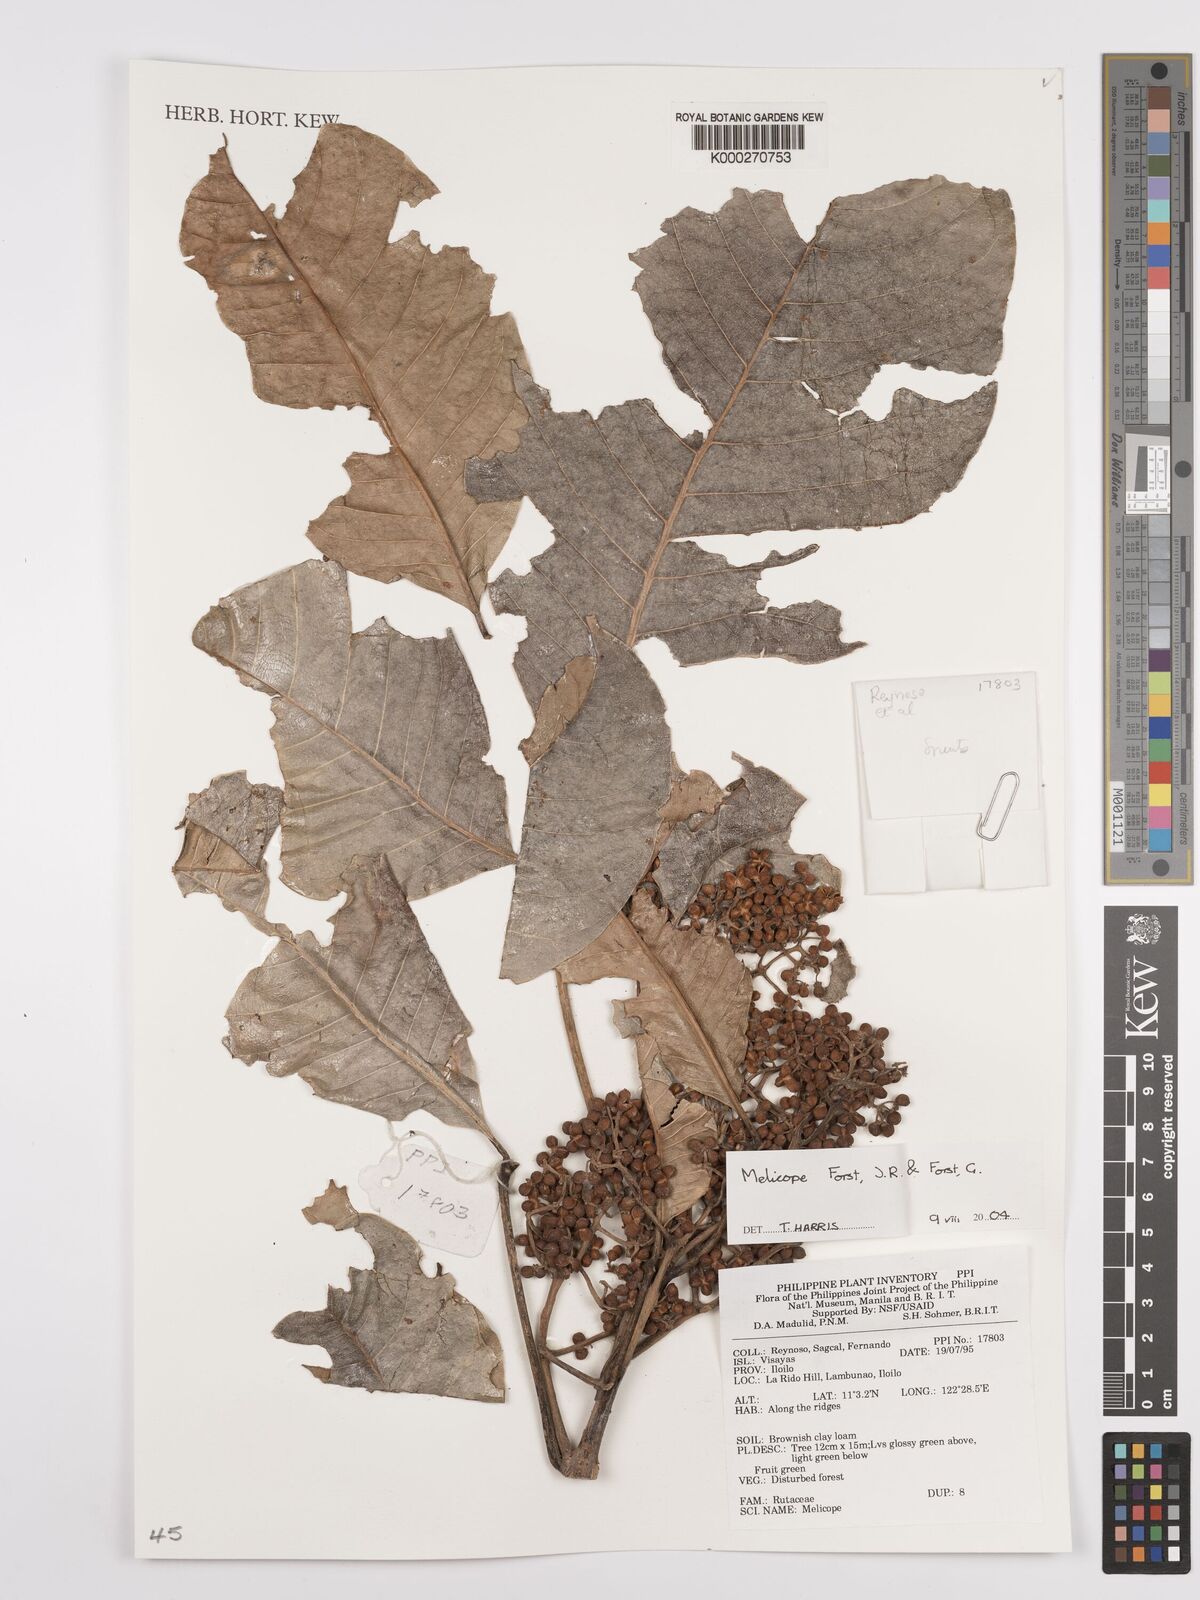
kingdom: Plantae
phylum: Tracheophyta
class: Magnoliopsida
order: Sapindales
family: Rutaceae
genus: Melicope
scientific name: Melicope
